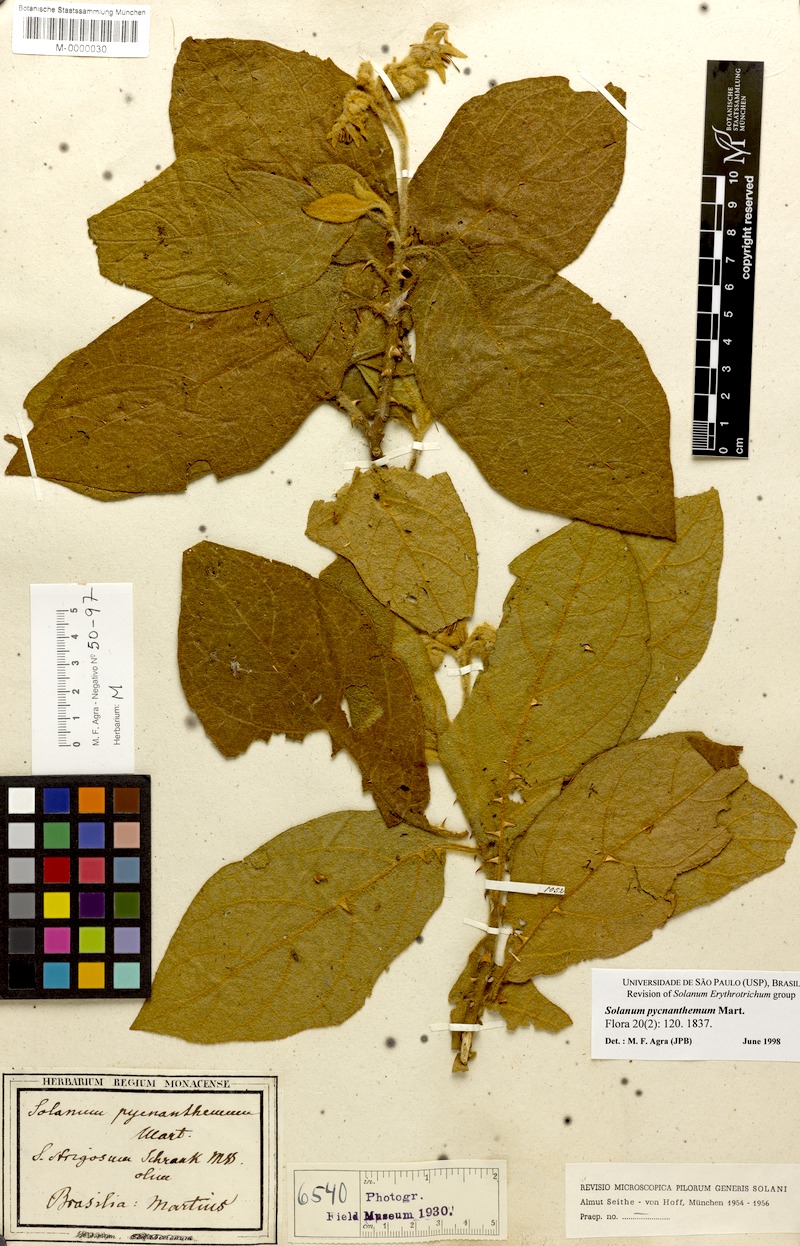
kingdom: Plantae
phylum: Tracheophyta
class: Magnoliopsida
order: Solanales
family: Solanaceae
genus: Solanum
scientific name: Solanum pycnanthemum
